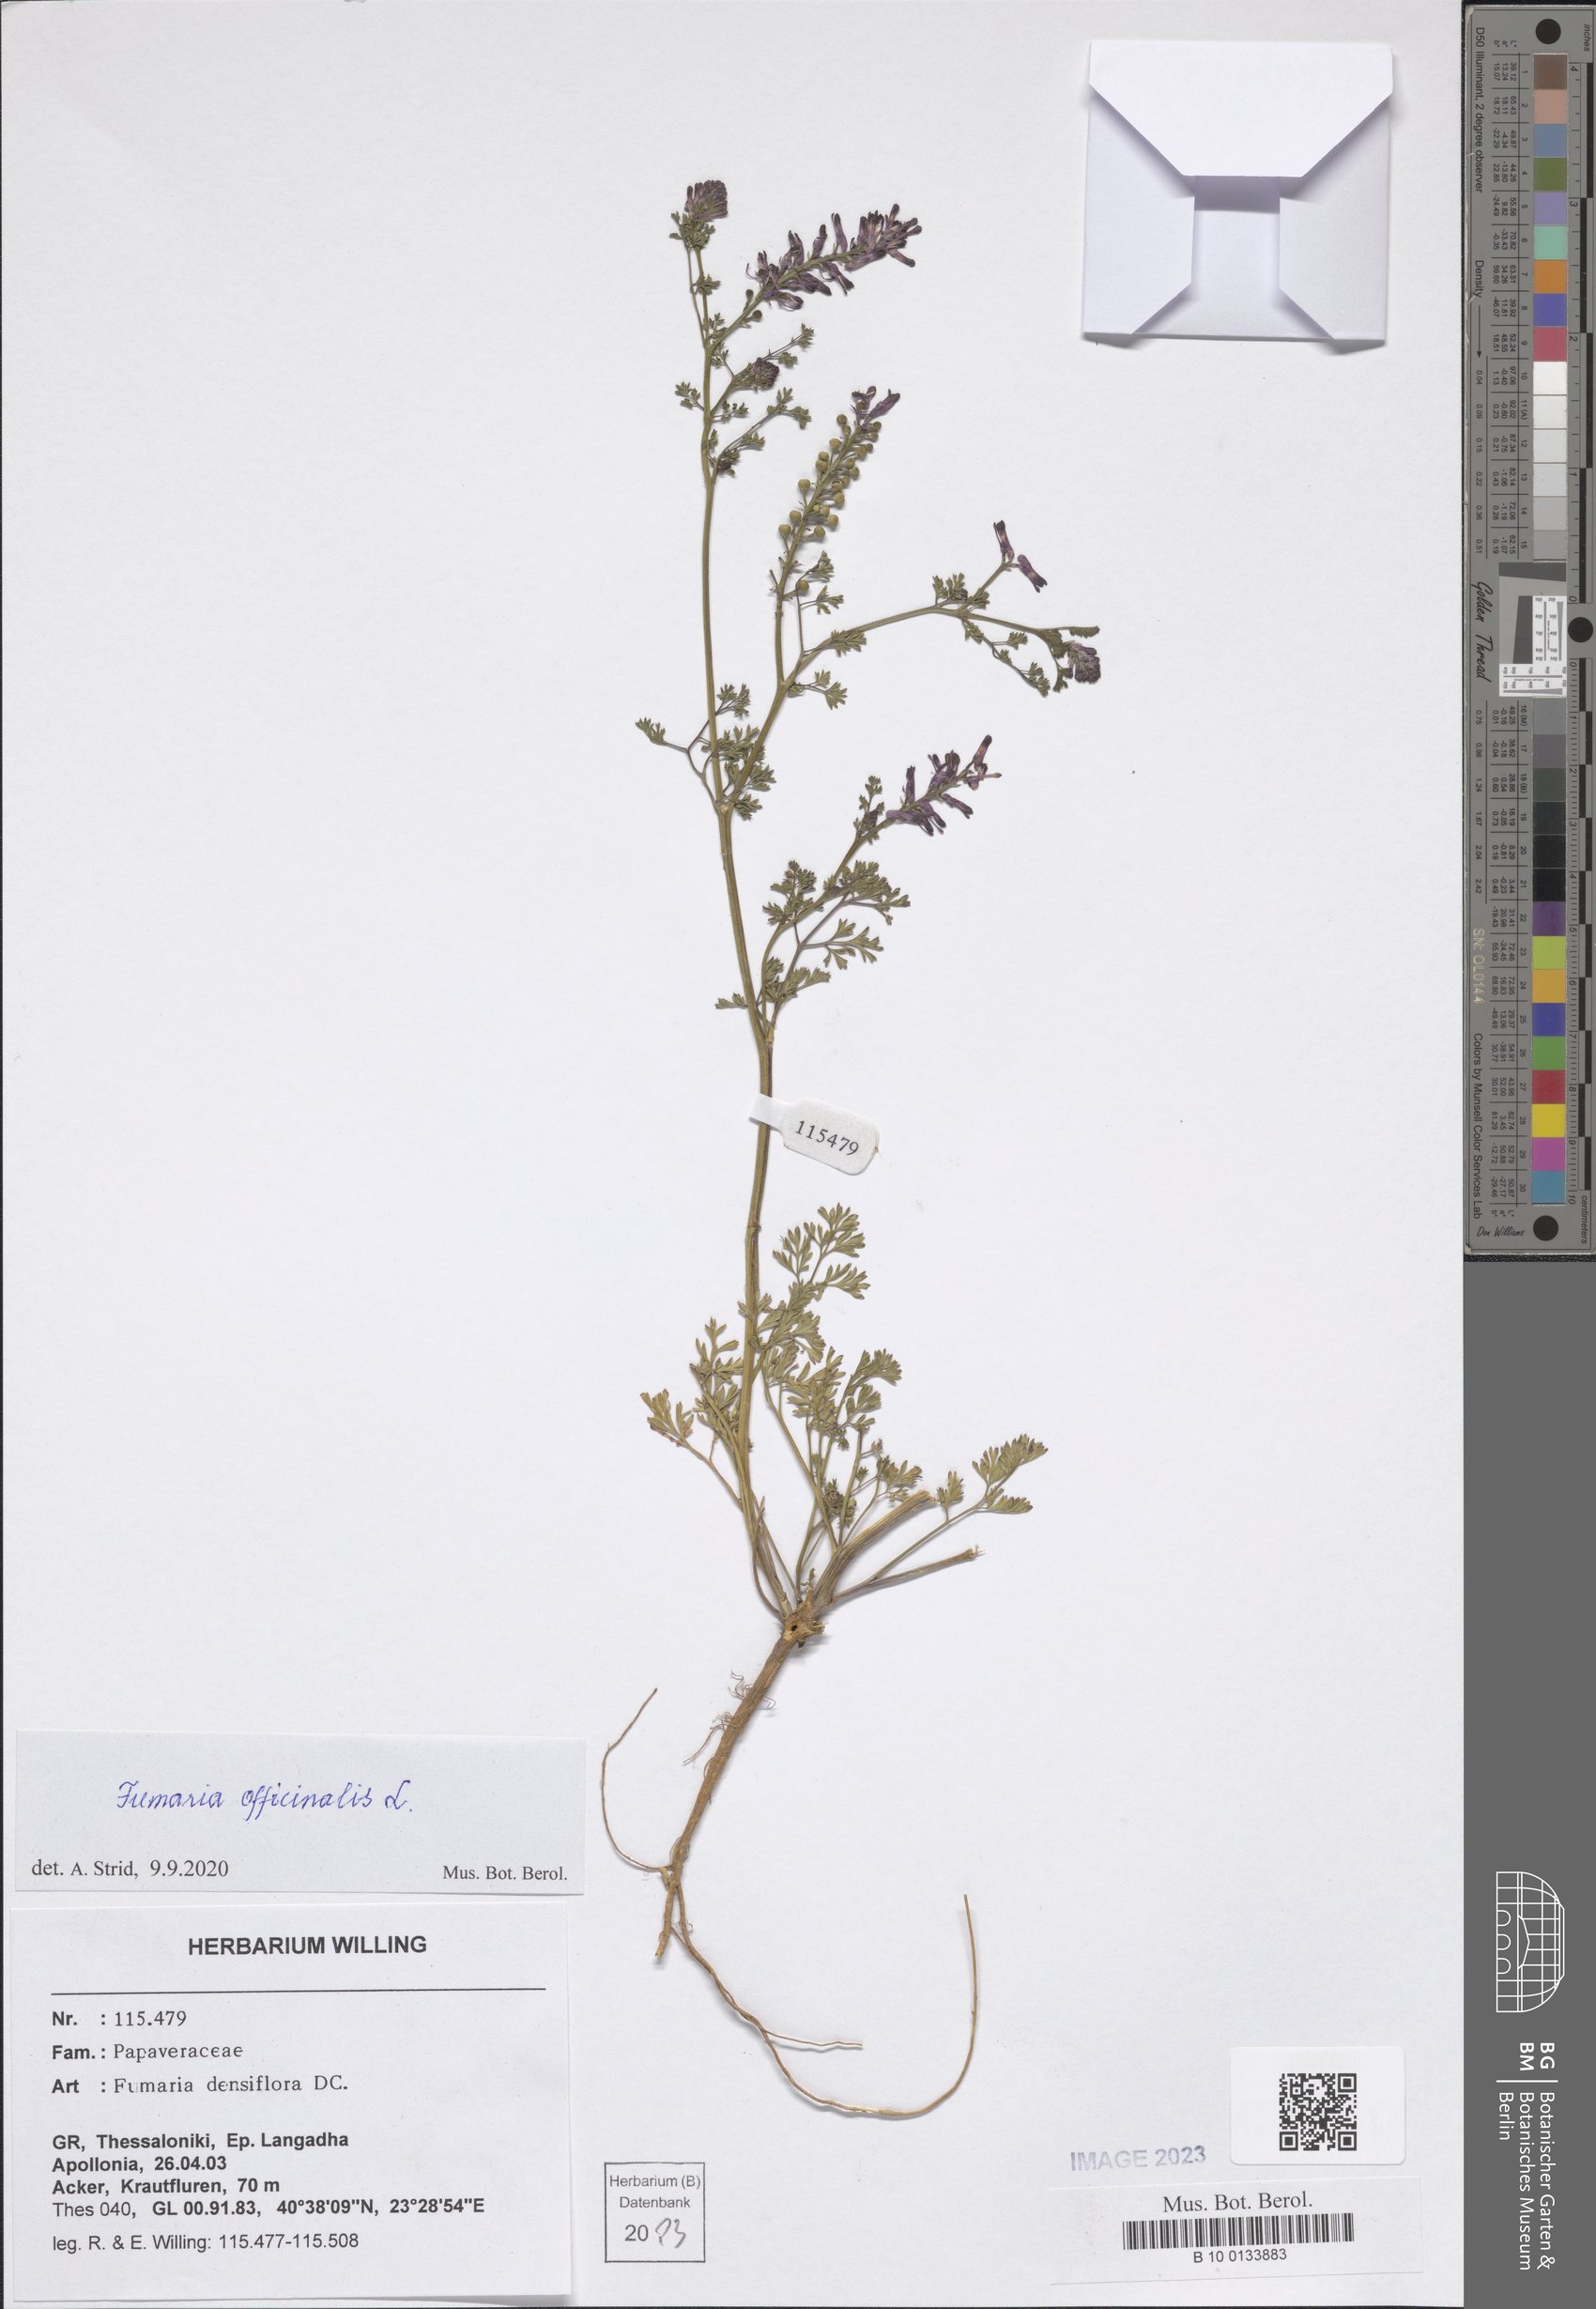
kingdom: Plantae
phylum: Tracheophyta
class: Magnoliopsida
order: Ranunculales
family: Papaveraceae
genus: Fumaria
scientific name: Fumaria officinalis
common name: Common fumitory
